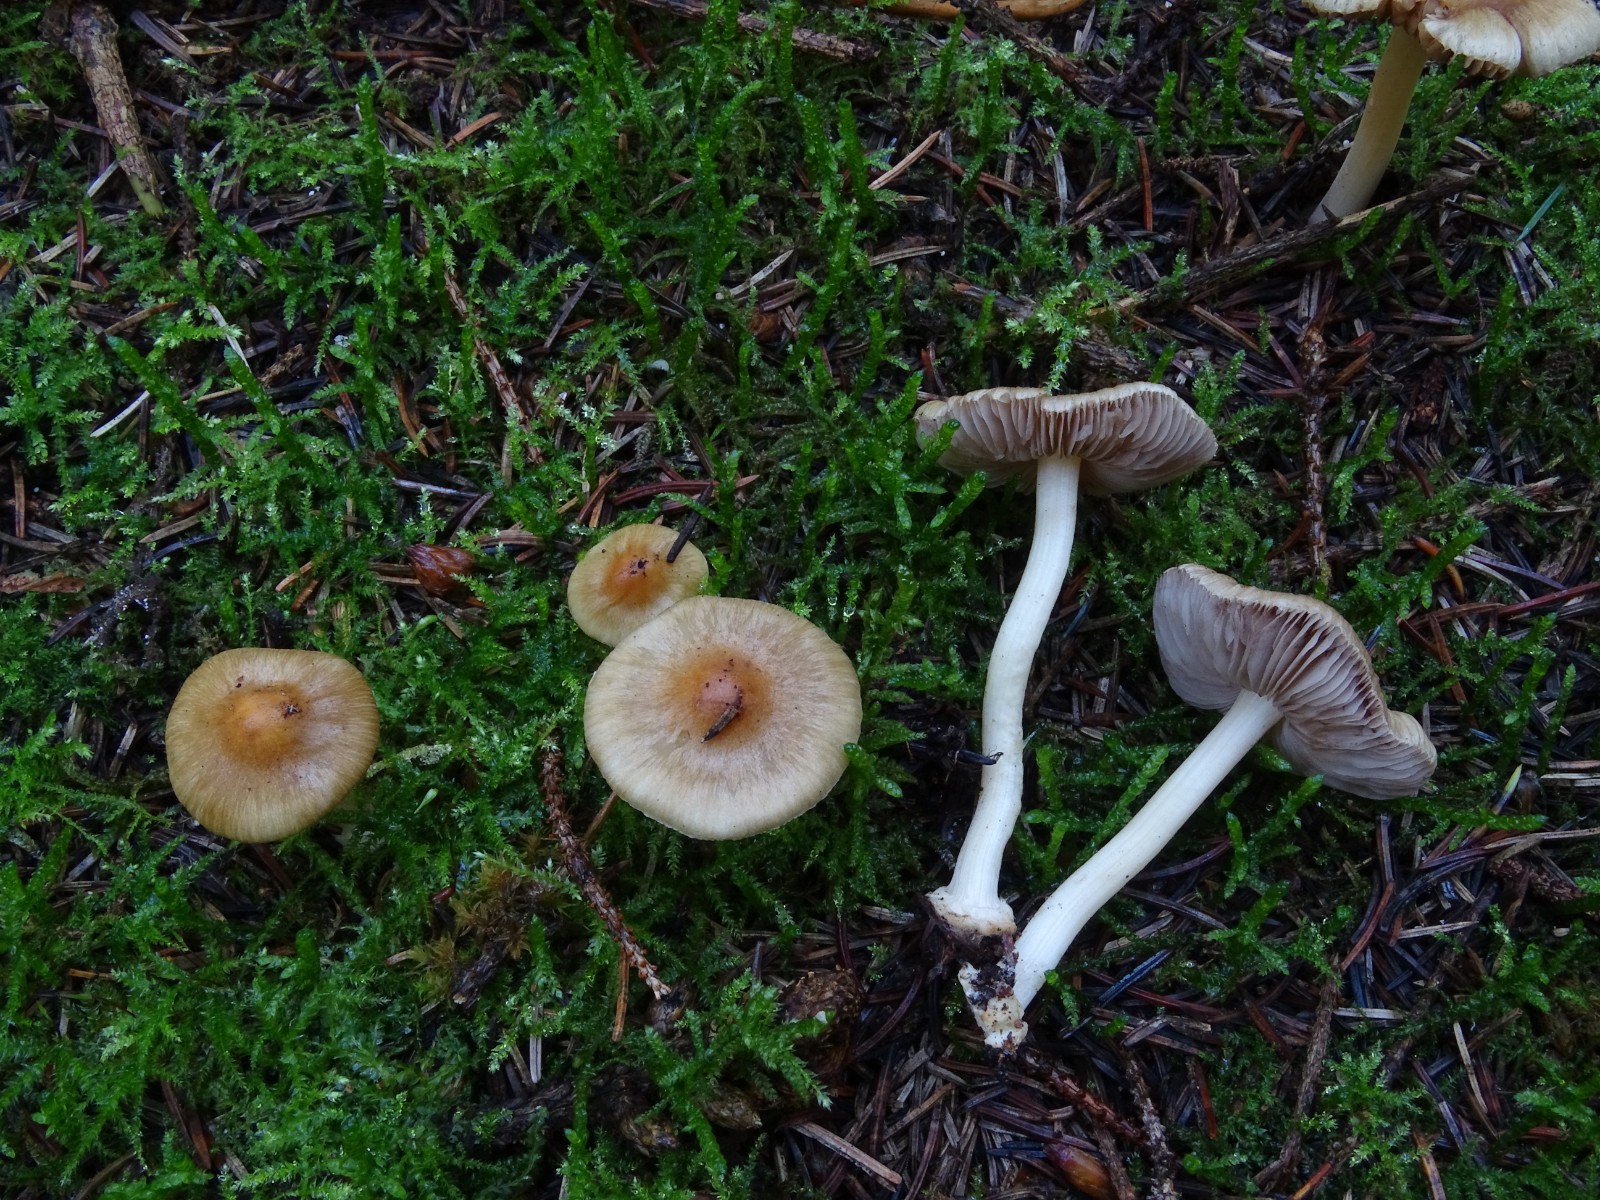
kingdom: Fungi
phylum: Basidiomycota
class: Agaricomycetes
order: Agaricales
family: Inocybaceae
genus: Inocybe
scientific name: Inocybe mixtilis
